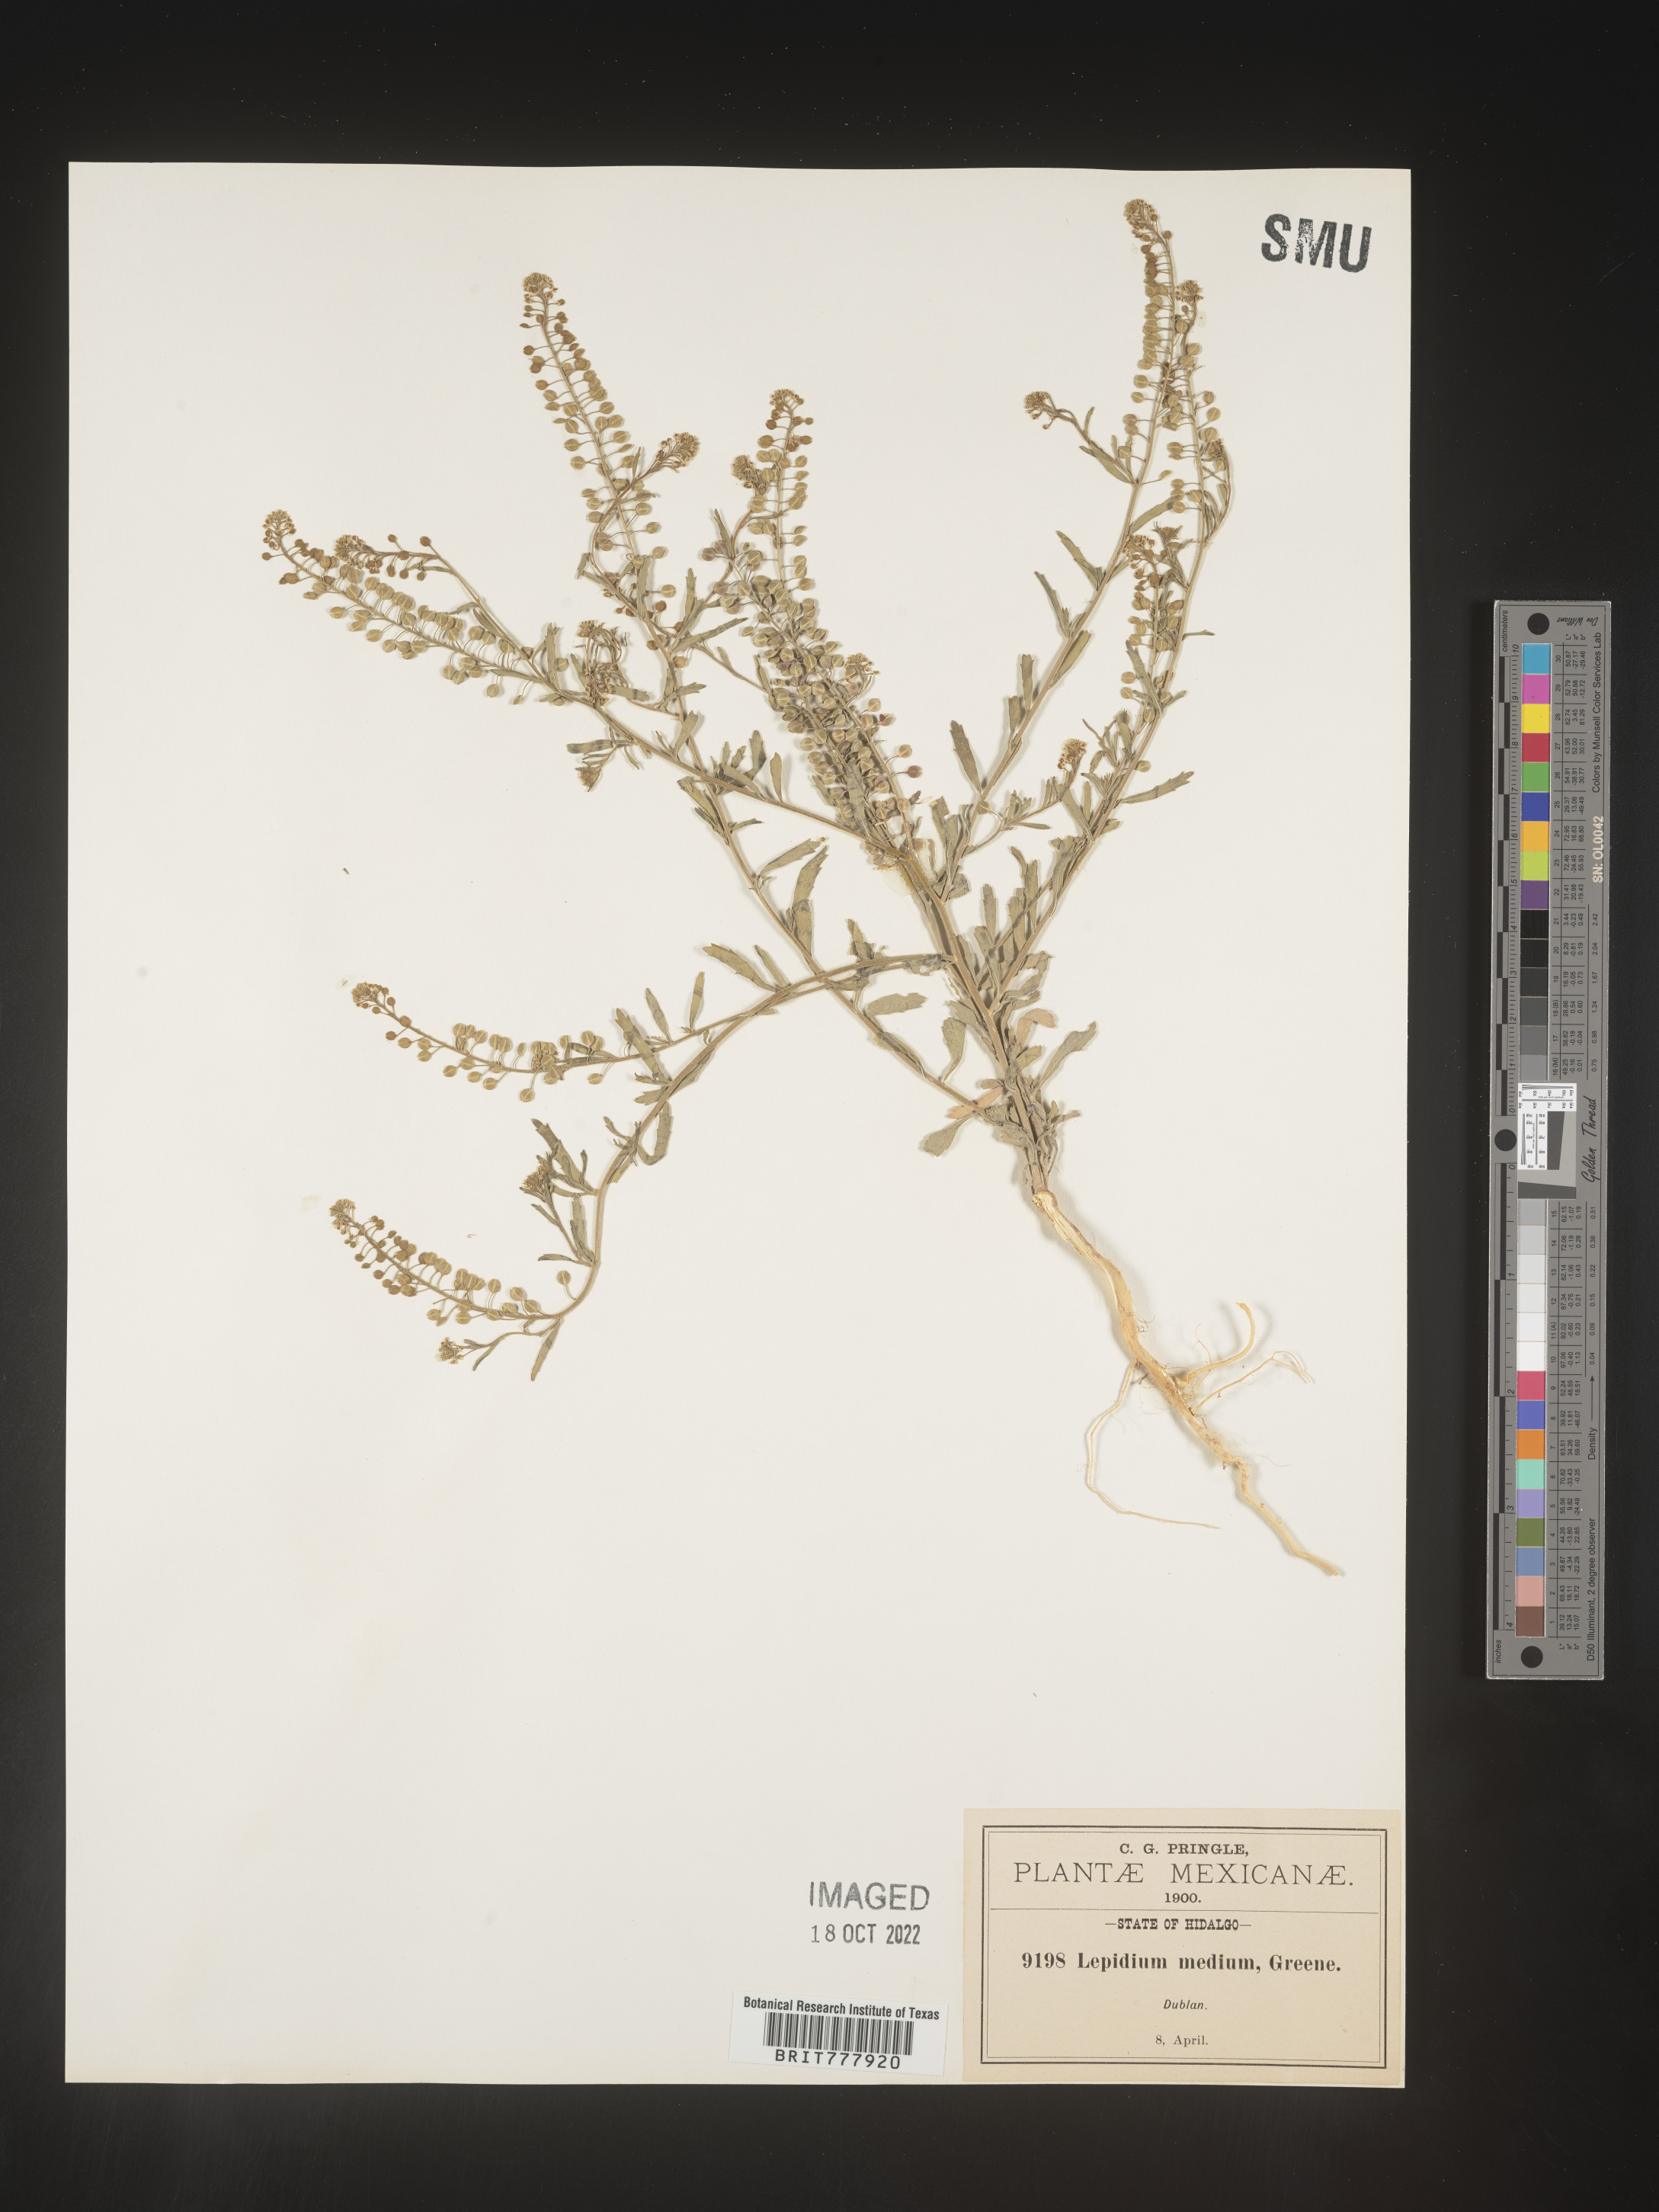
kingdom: Plantae
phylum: Tracheophyta
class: Magnoliopsida
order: Brassicales
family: Brassicaceae
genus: Lepidium
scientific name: Lepidium
